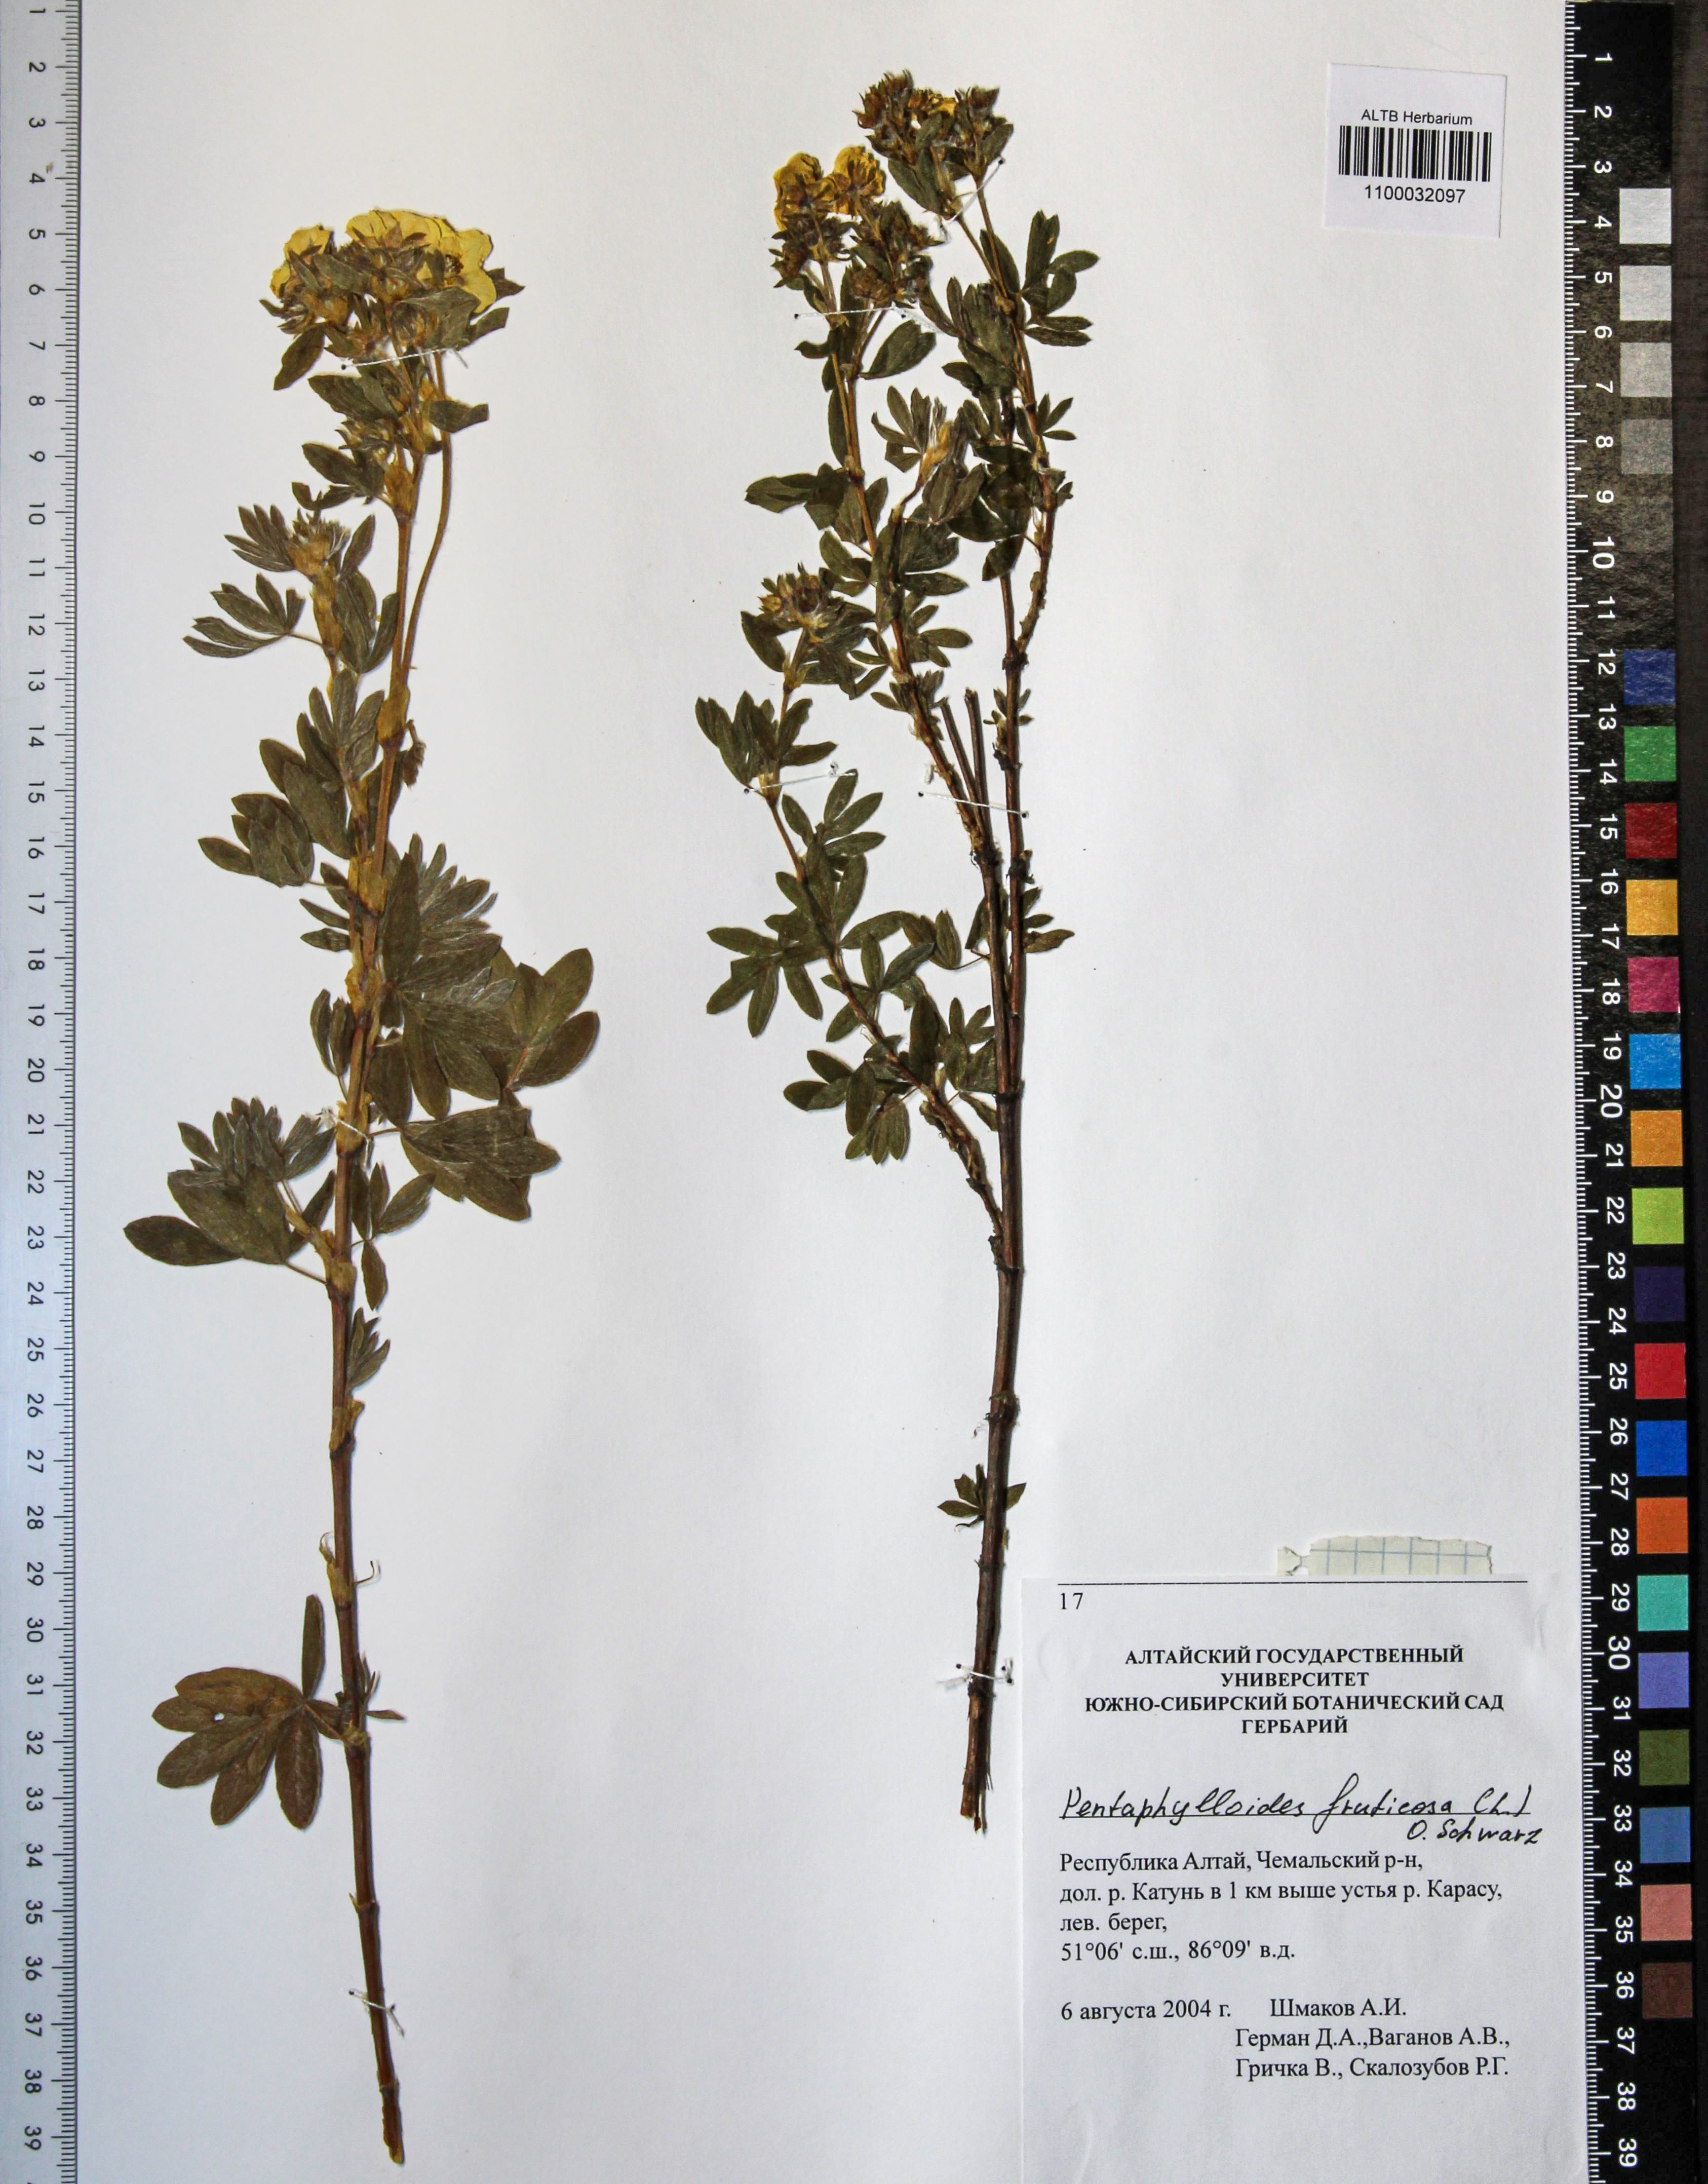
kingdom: Plantae
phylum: Tracheophyta
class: Magnoliopsida
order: Rosales
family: Rosaceae
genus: Dasiphora
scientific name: Dasiphora fruticosa
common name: Shrubby cinquefoil
